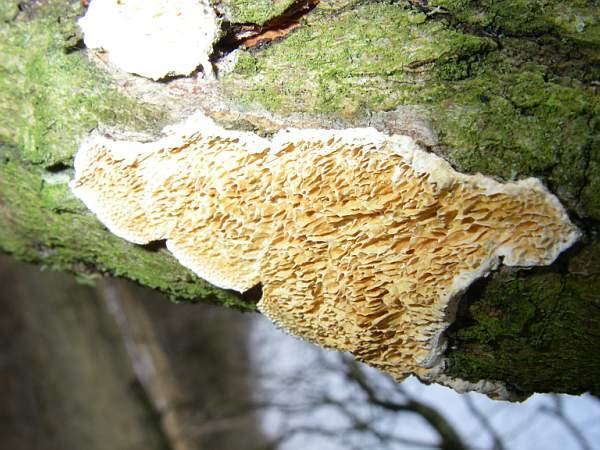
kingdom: Fungi
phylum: Basidiomycota
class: Agaricomycetes
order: Polyporales
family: Irpicaceae
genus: Resiniporus
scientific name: Resiniporus resinascens
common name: trist pastelporesvamp
